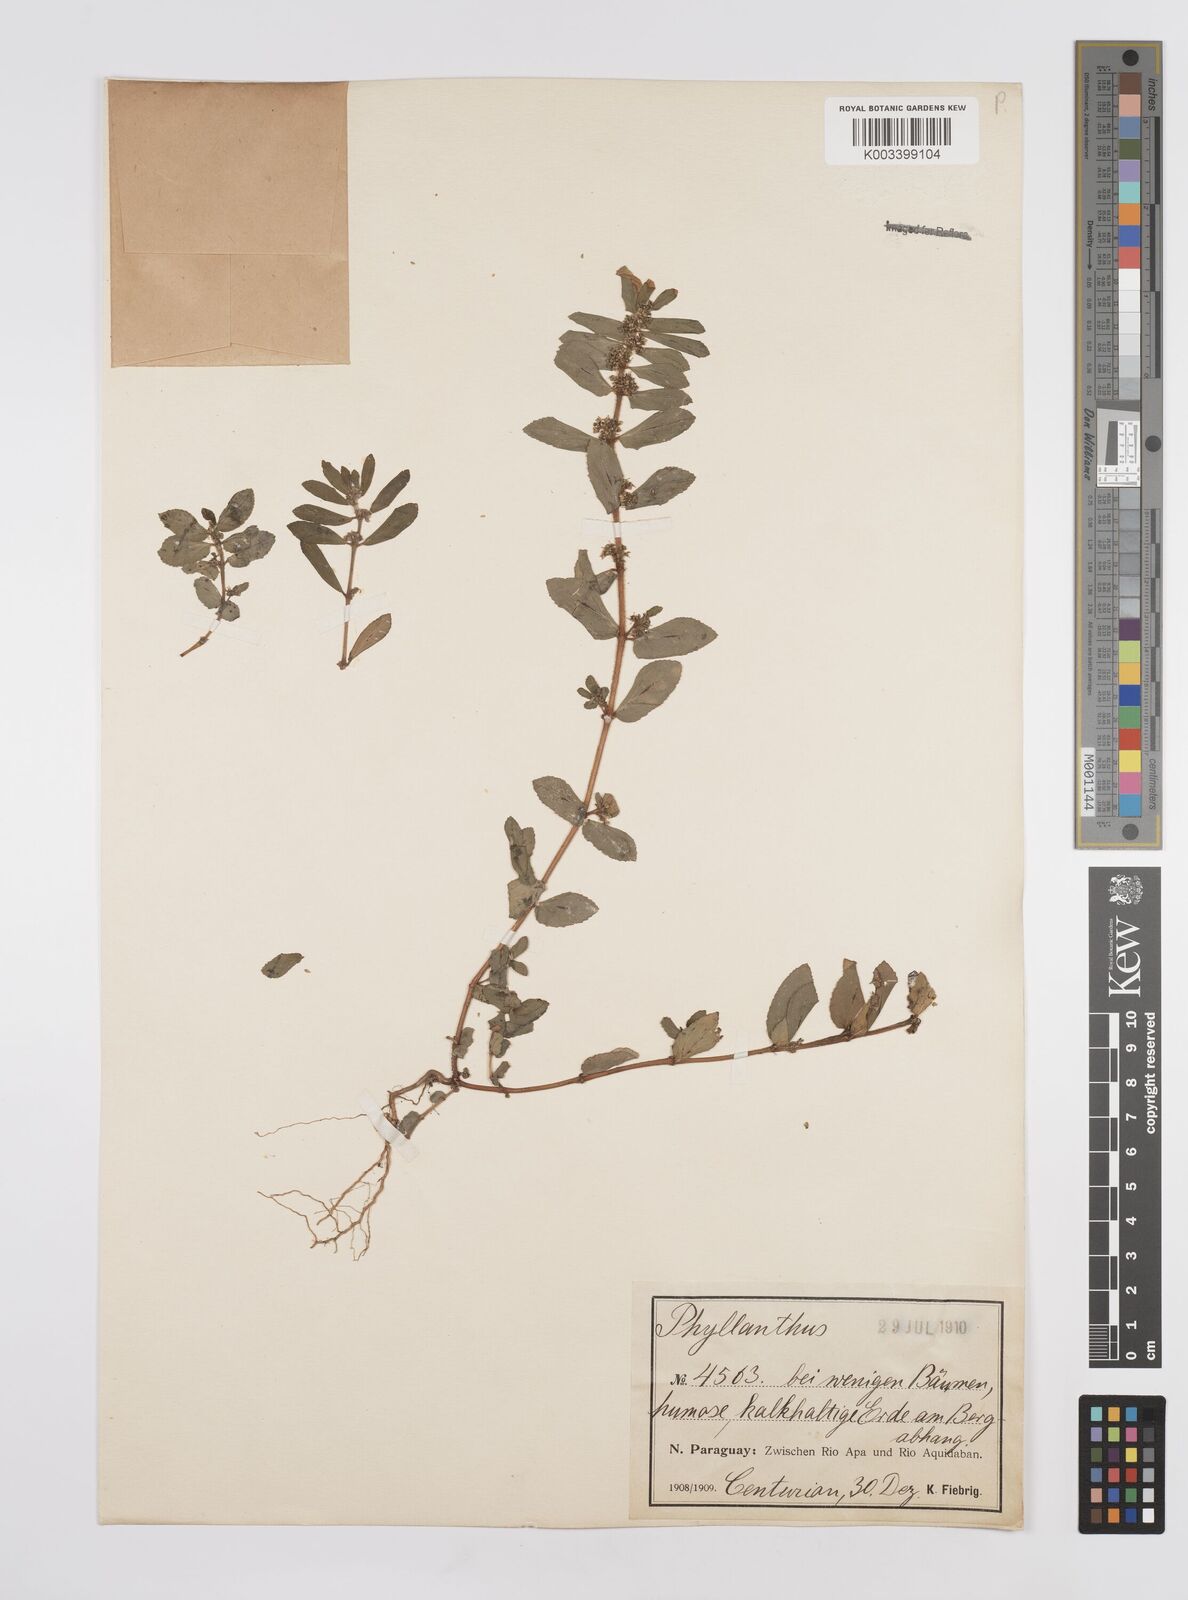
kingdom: Plantae
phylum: Tracheophyta
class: Magnoliopsida
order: Malpighiales
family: Euphorbiaceae
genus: Euphorbia
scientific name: Euphorbia hirta
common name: Pillpod sandmat
